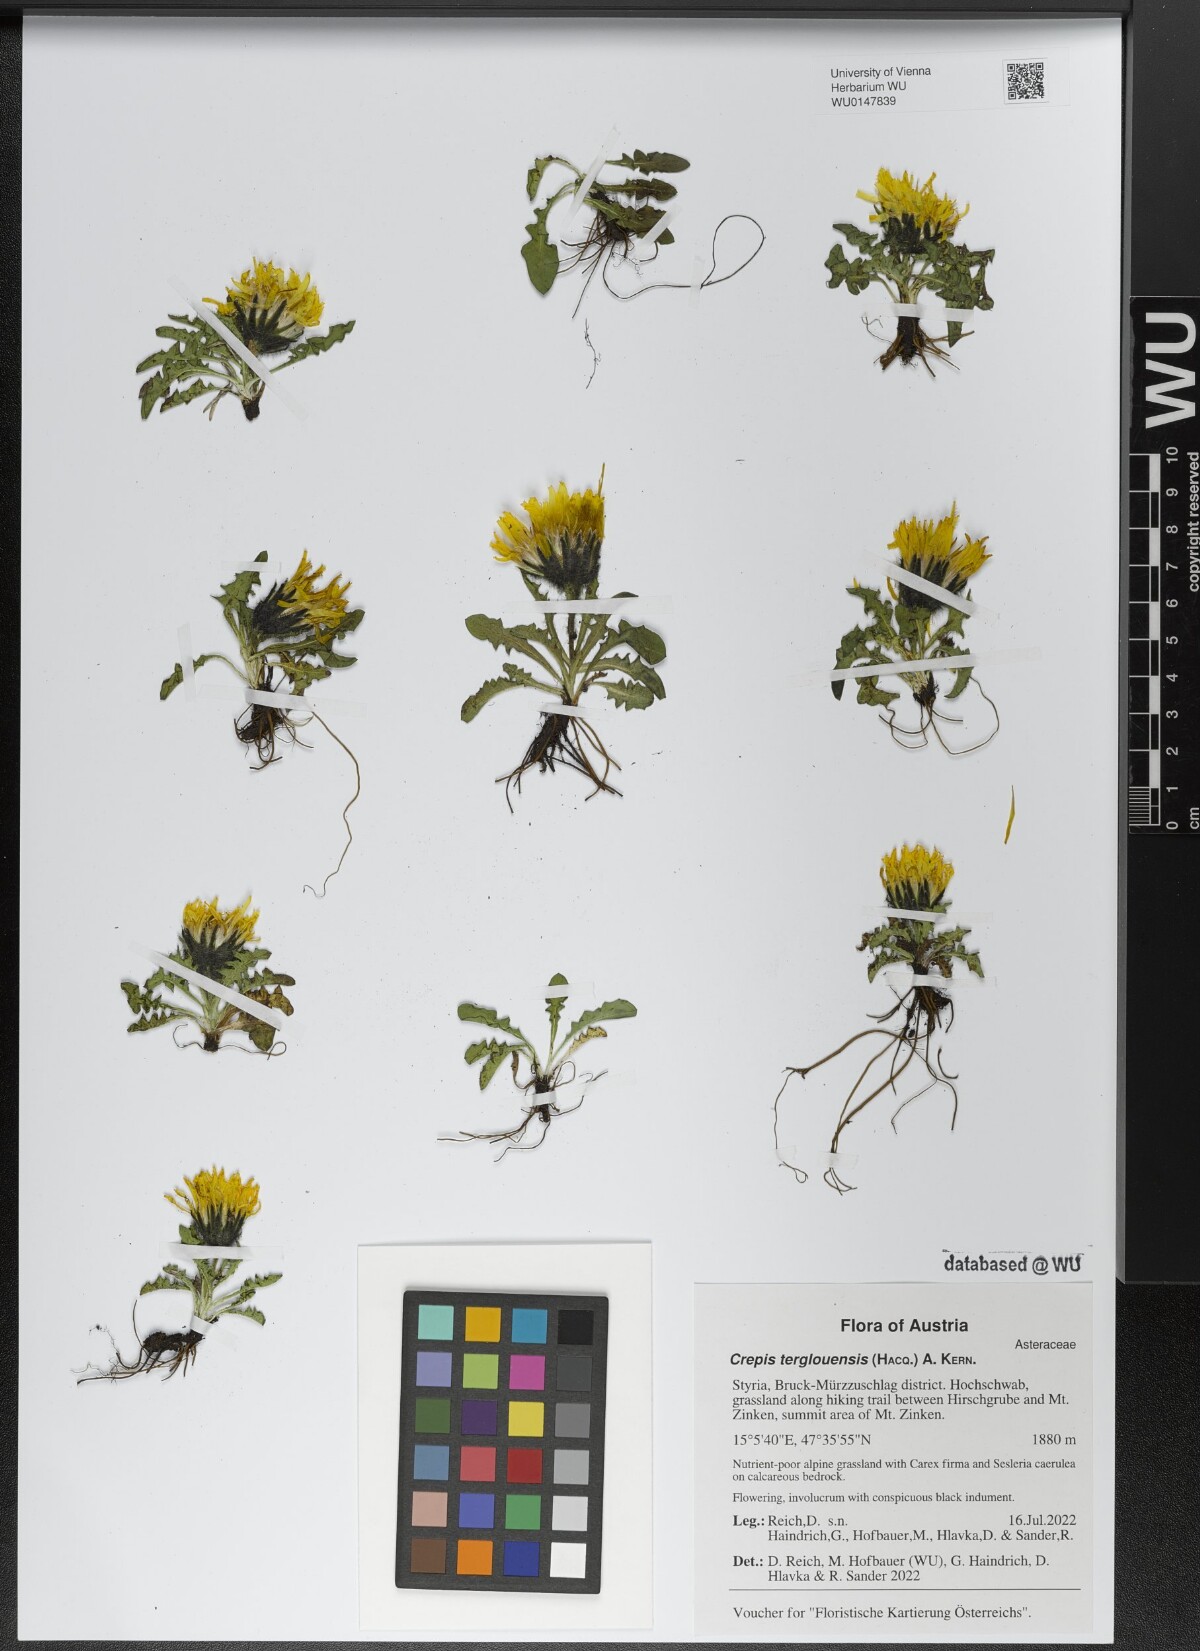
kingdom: Plantae
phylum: Tracheophyta
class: Magnoliopsida
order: Asterales
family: Asteraceae
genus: Crepis
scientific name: Crepis terglouensis
